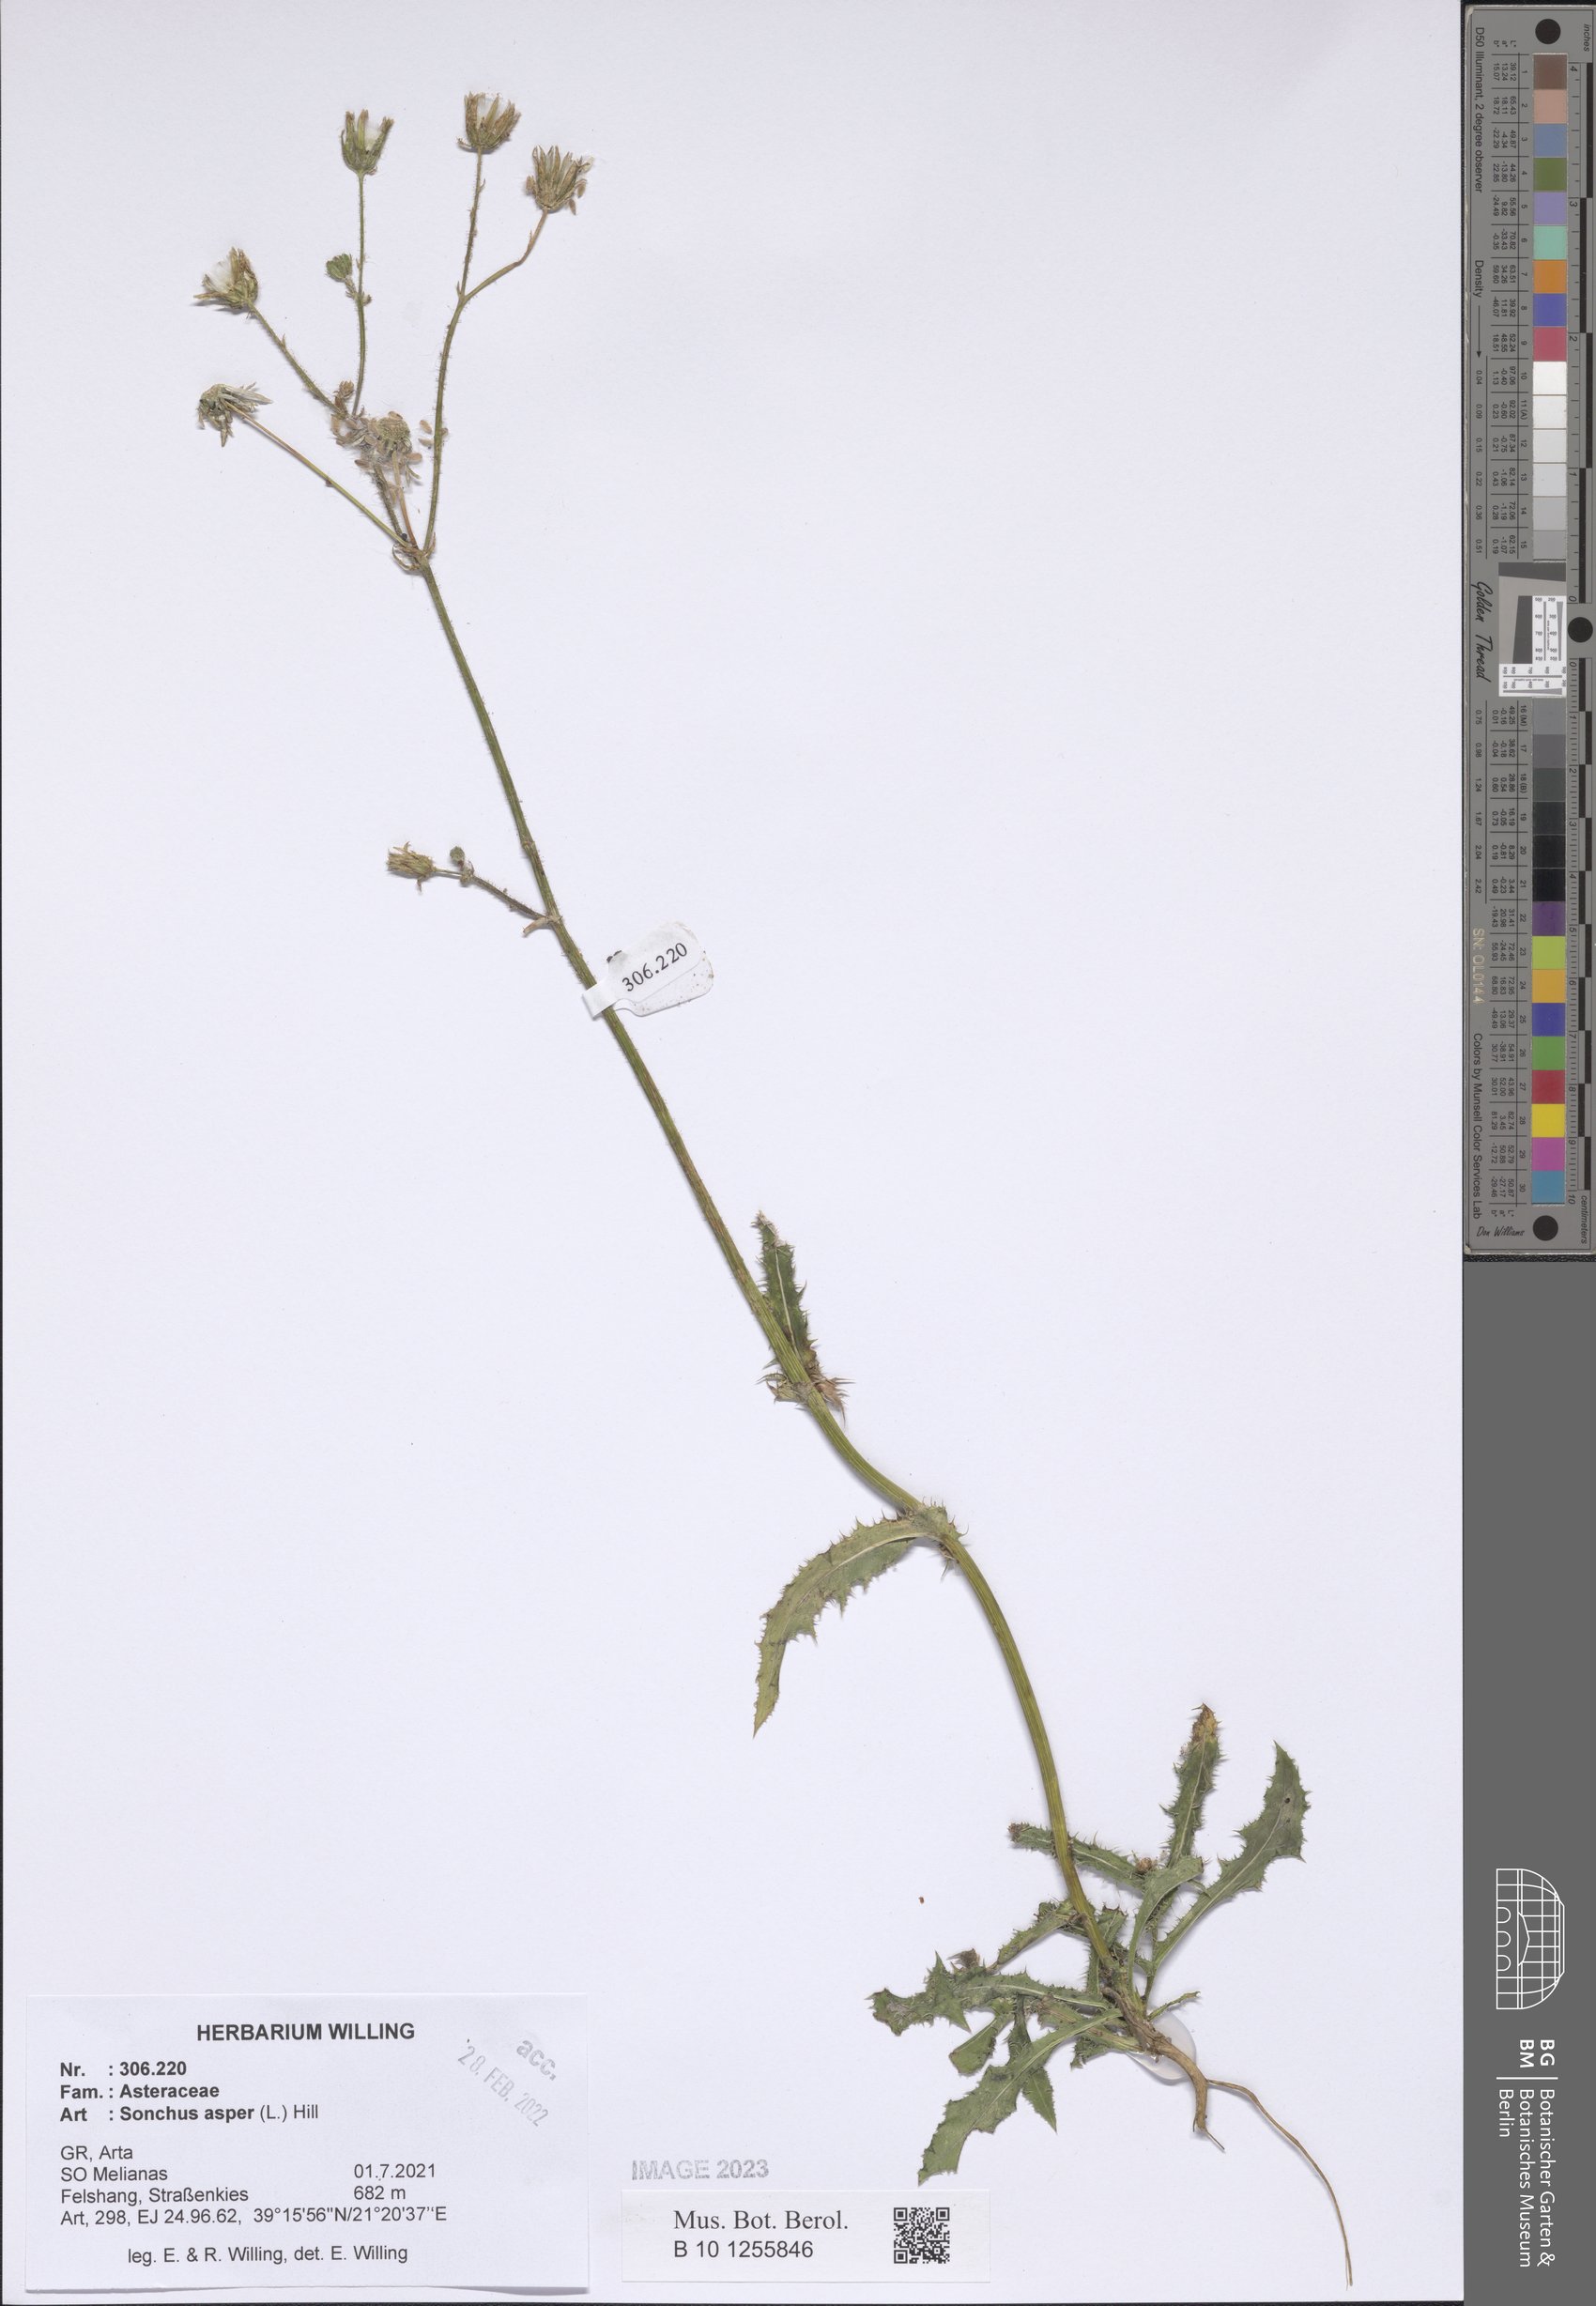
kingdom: Plantae
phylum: Tracheophyta
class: Magnoliopsida
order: Asterales
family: Asteraceae
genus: Sonchus
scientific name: Sonchus asper
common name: Prickly sow-thistle
